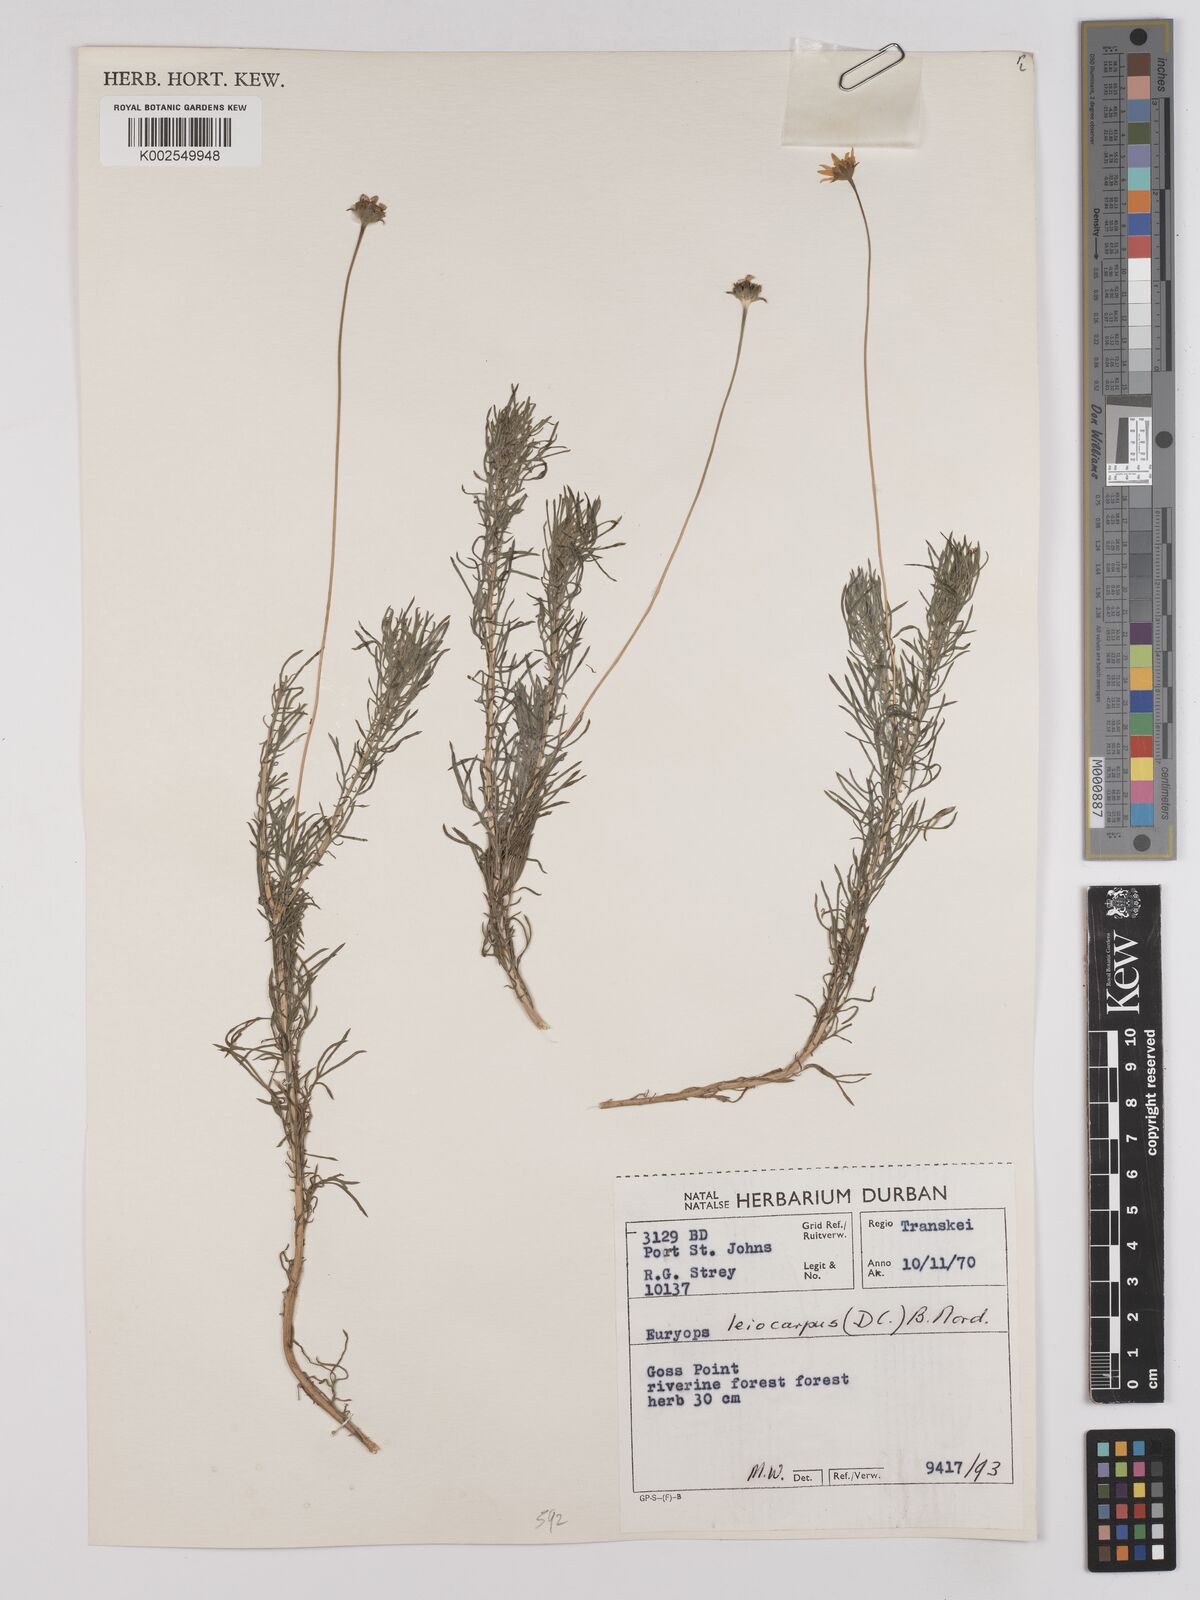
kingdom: Plantae
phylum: Tracheophyta
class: Magnoliopsida
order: Asterales
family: Asteraceae
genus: Euryops
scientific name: Euryops leiocarpus
